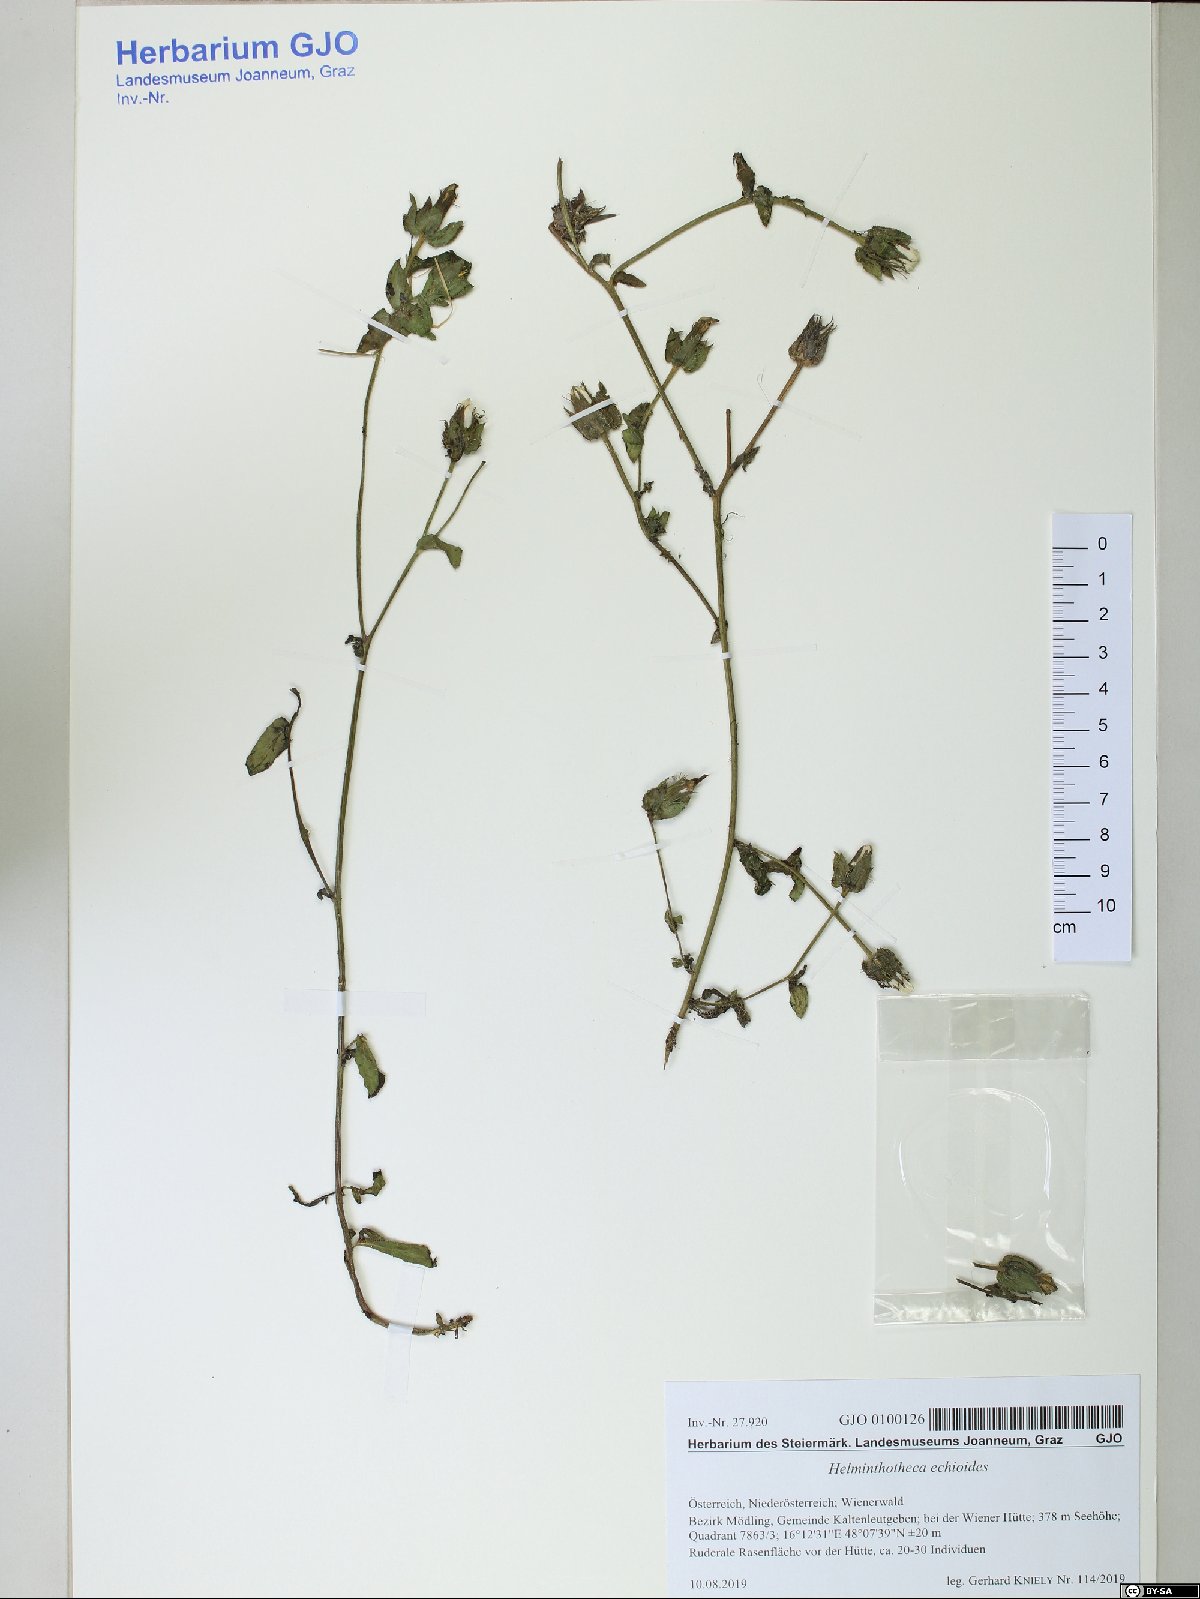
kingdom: Plantae
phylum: Tracheophyta
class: Magnoliopsida
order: Asterales
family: Asteraceae
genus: Helminthotheca
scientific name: Helminthotheca echioides
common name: Ox-tongue
